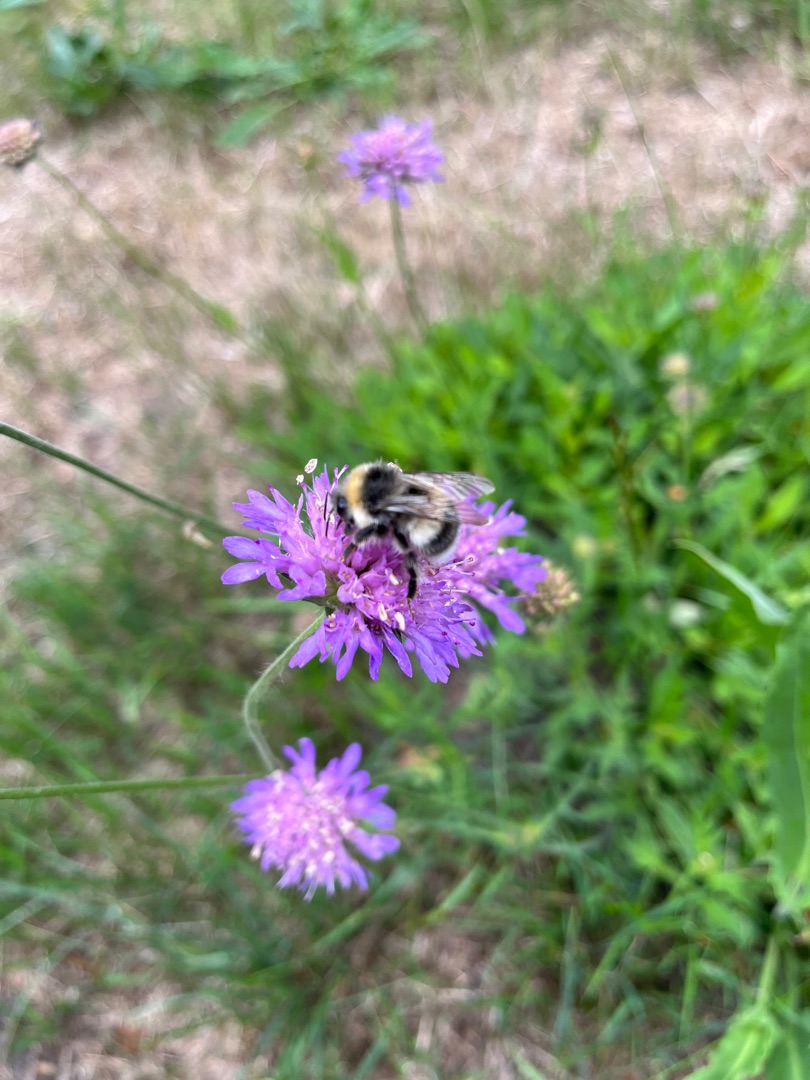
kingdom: Plantae
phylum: Tracheophyta
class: Magnoliopsida
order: Dipsacales
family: Caprifoliaceae
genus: Knautia
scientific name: Knautia arvensis
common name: Blåhat
